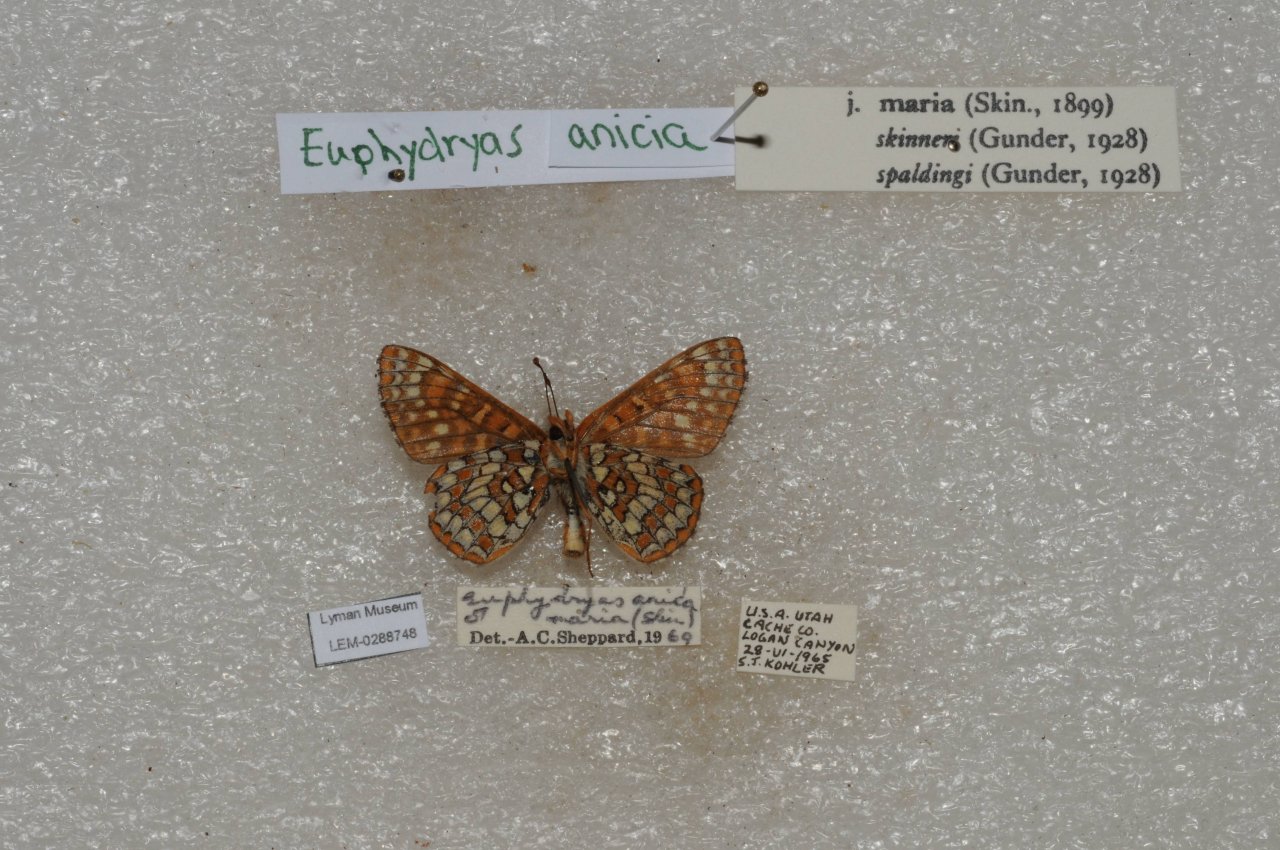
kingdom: Animalia
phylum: Arthropoda
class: Insecta
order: Lepidoptera
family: Nymphalidae
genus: Occidryas
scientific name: Occidryas anicia
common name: Anicia Checkerspot
